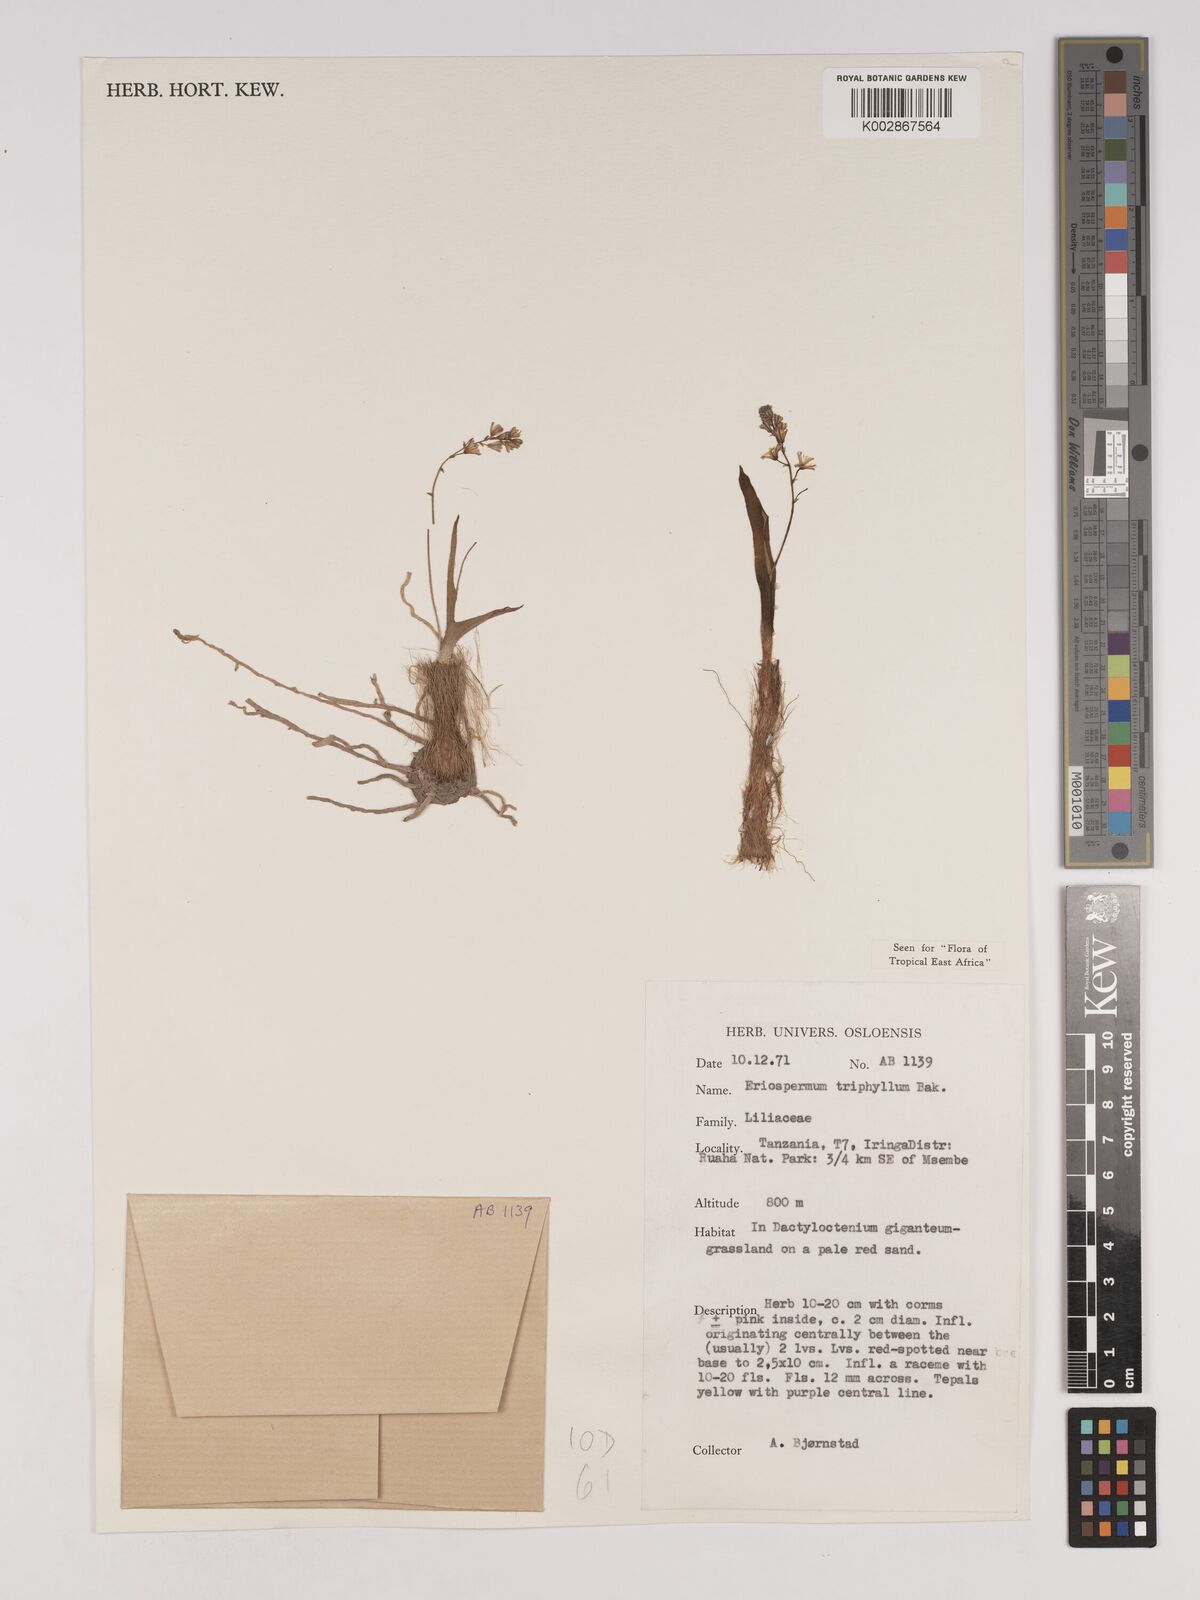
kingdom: Plantae
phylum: Tracheophyta
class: Liliopsida
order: Asparagales
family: Asparagaceae
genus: Eriospermum
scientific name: Eriospermum triphyllum
